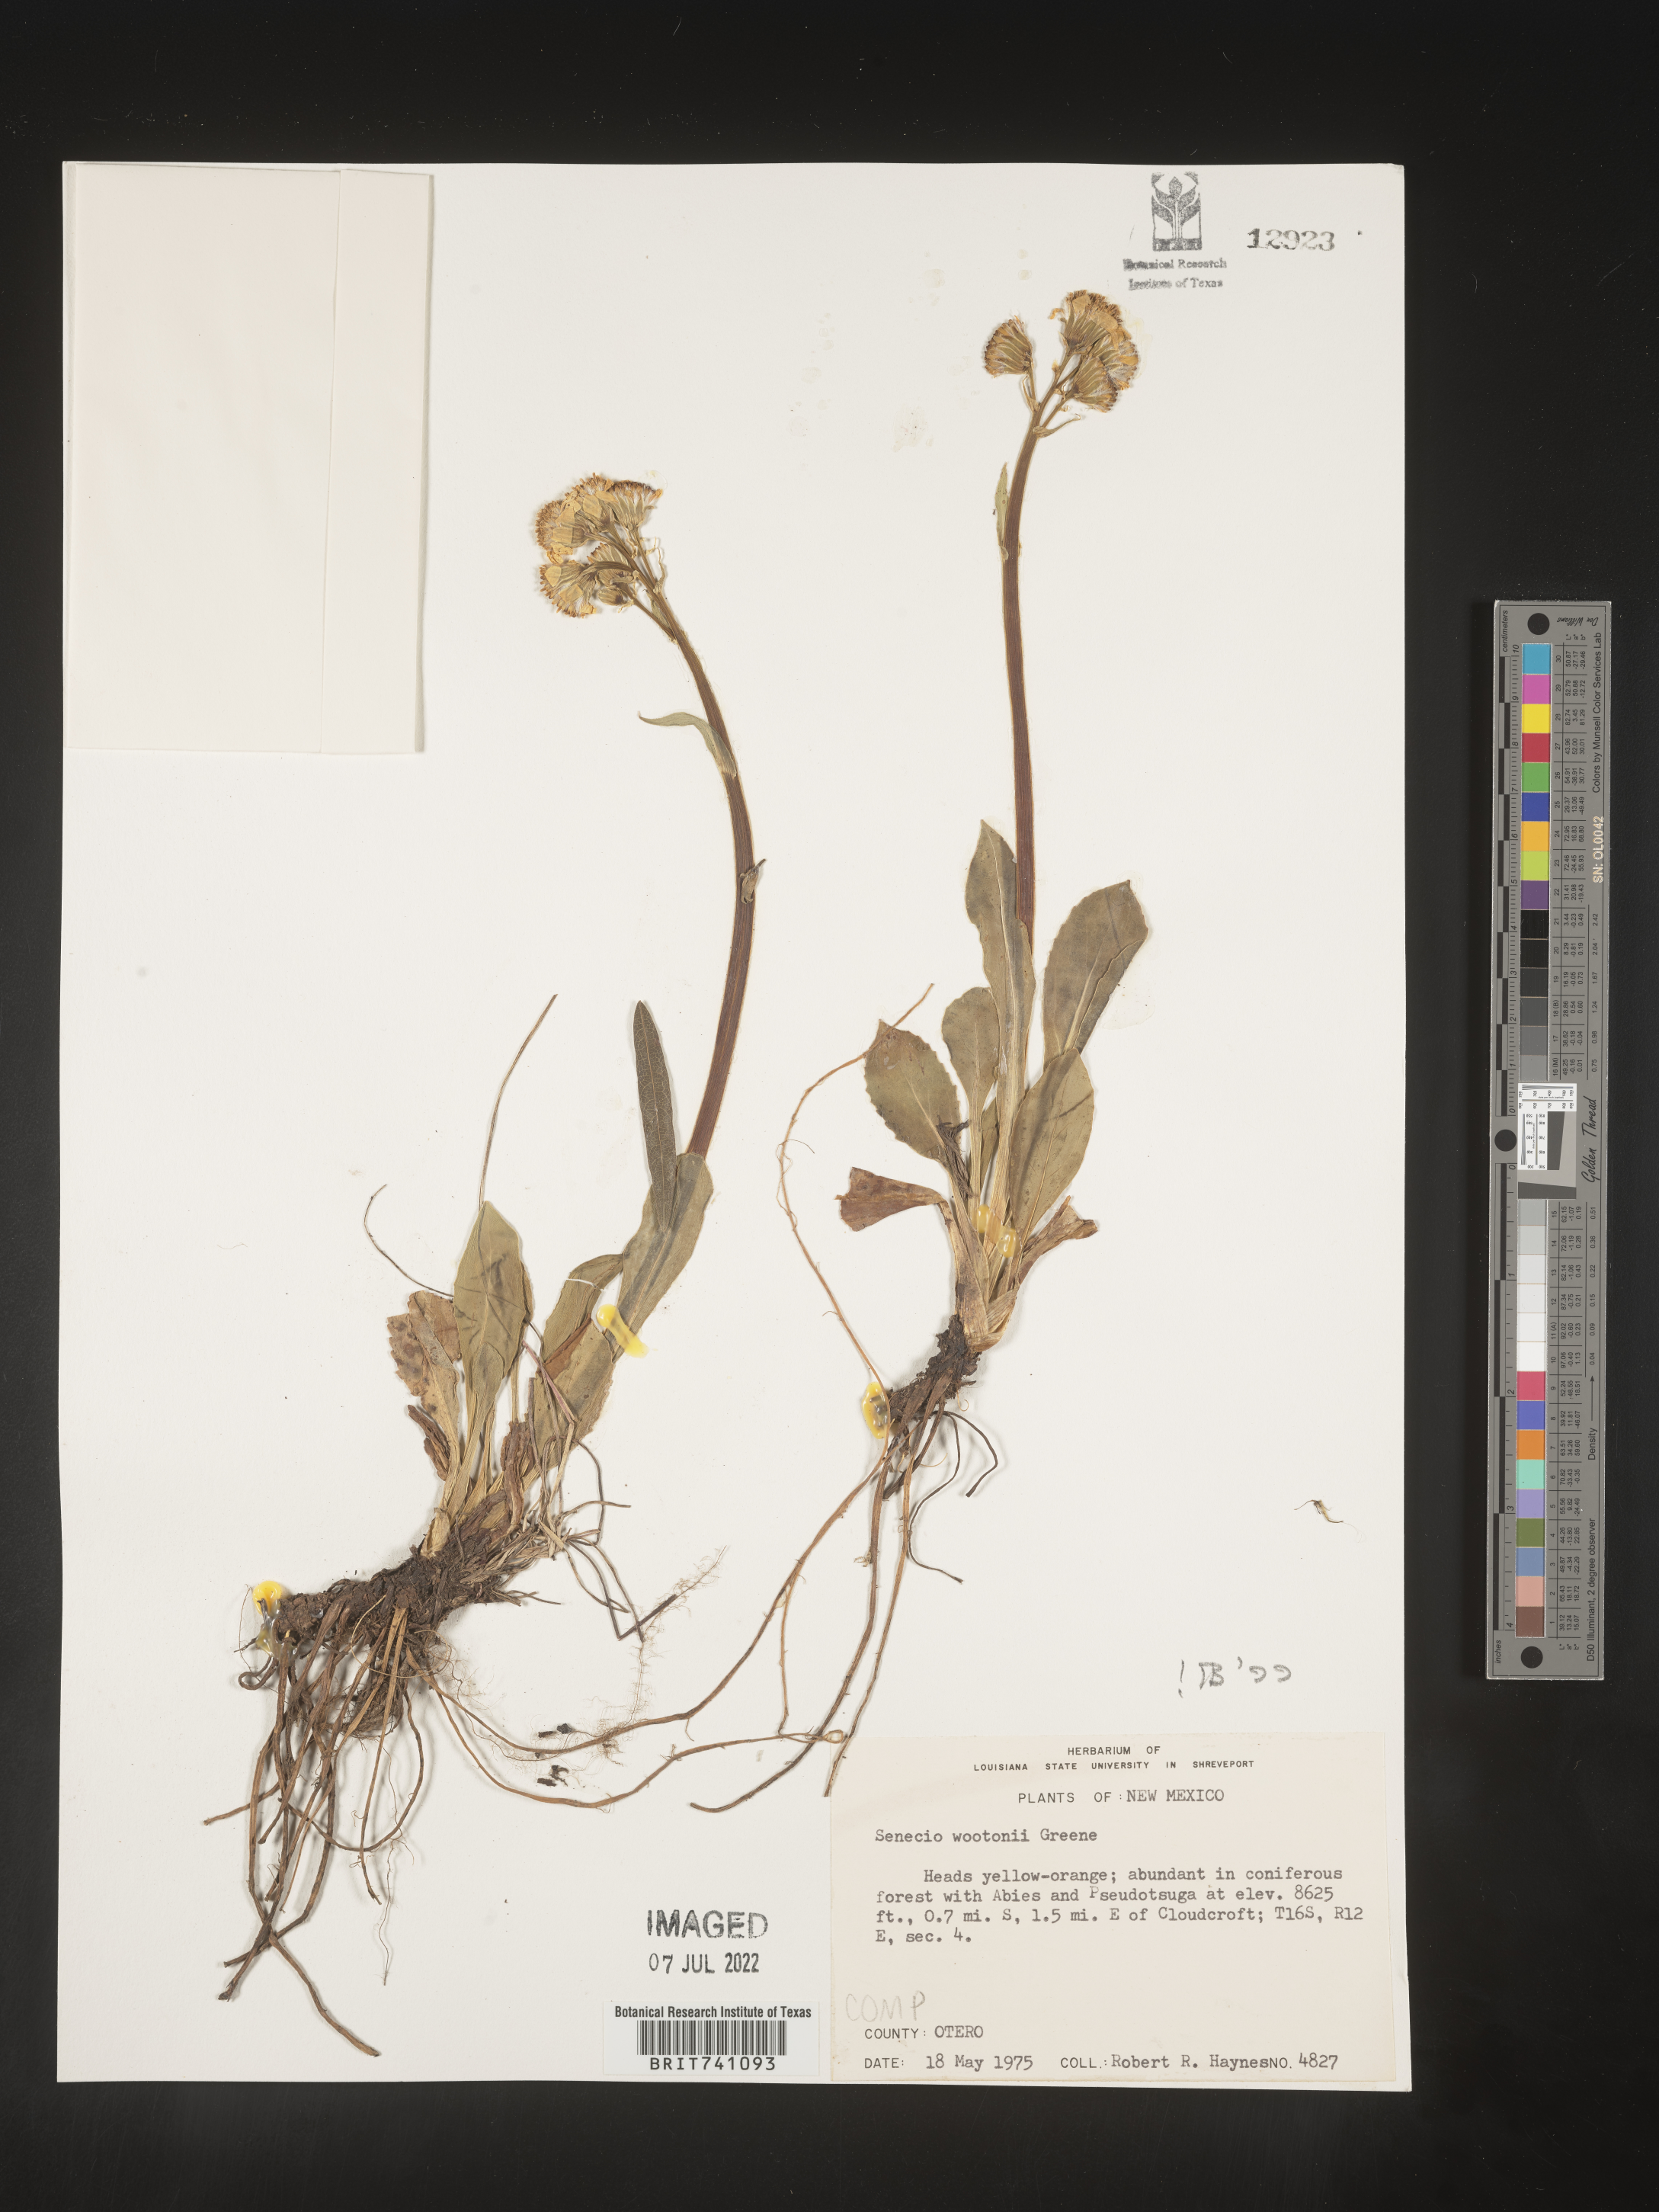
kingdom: Plantae
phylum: Tracheophyta
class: Magnoliopsida
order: Asterales
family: Asteraceae
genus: Senecio
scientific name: Senecio wootonii
